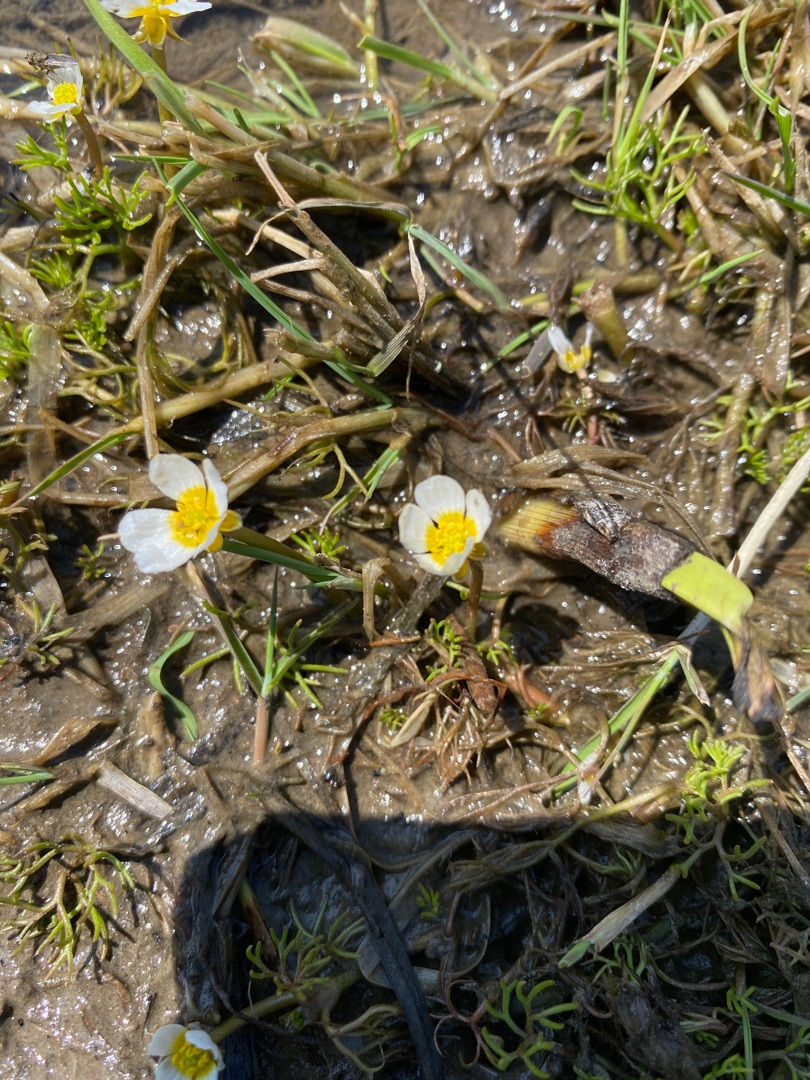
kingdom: Plantae
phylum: Tracheophyta
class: Magnoliopsida
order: Ranunculales
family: Ranunculaceae
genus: Ranunculus
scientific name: Ranunculus
